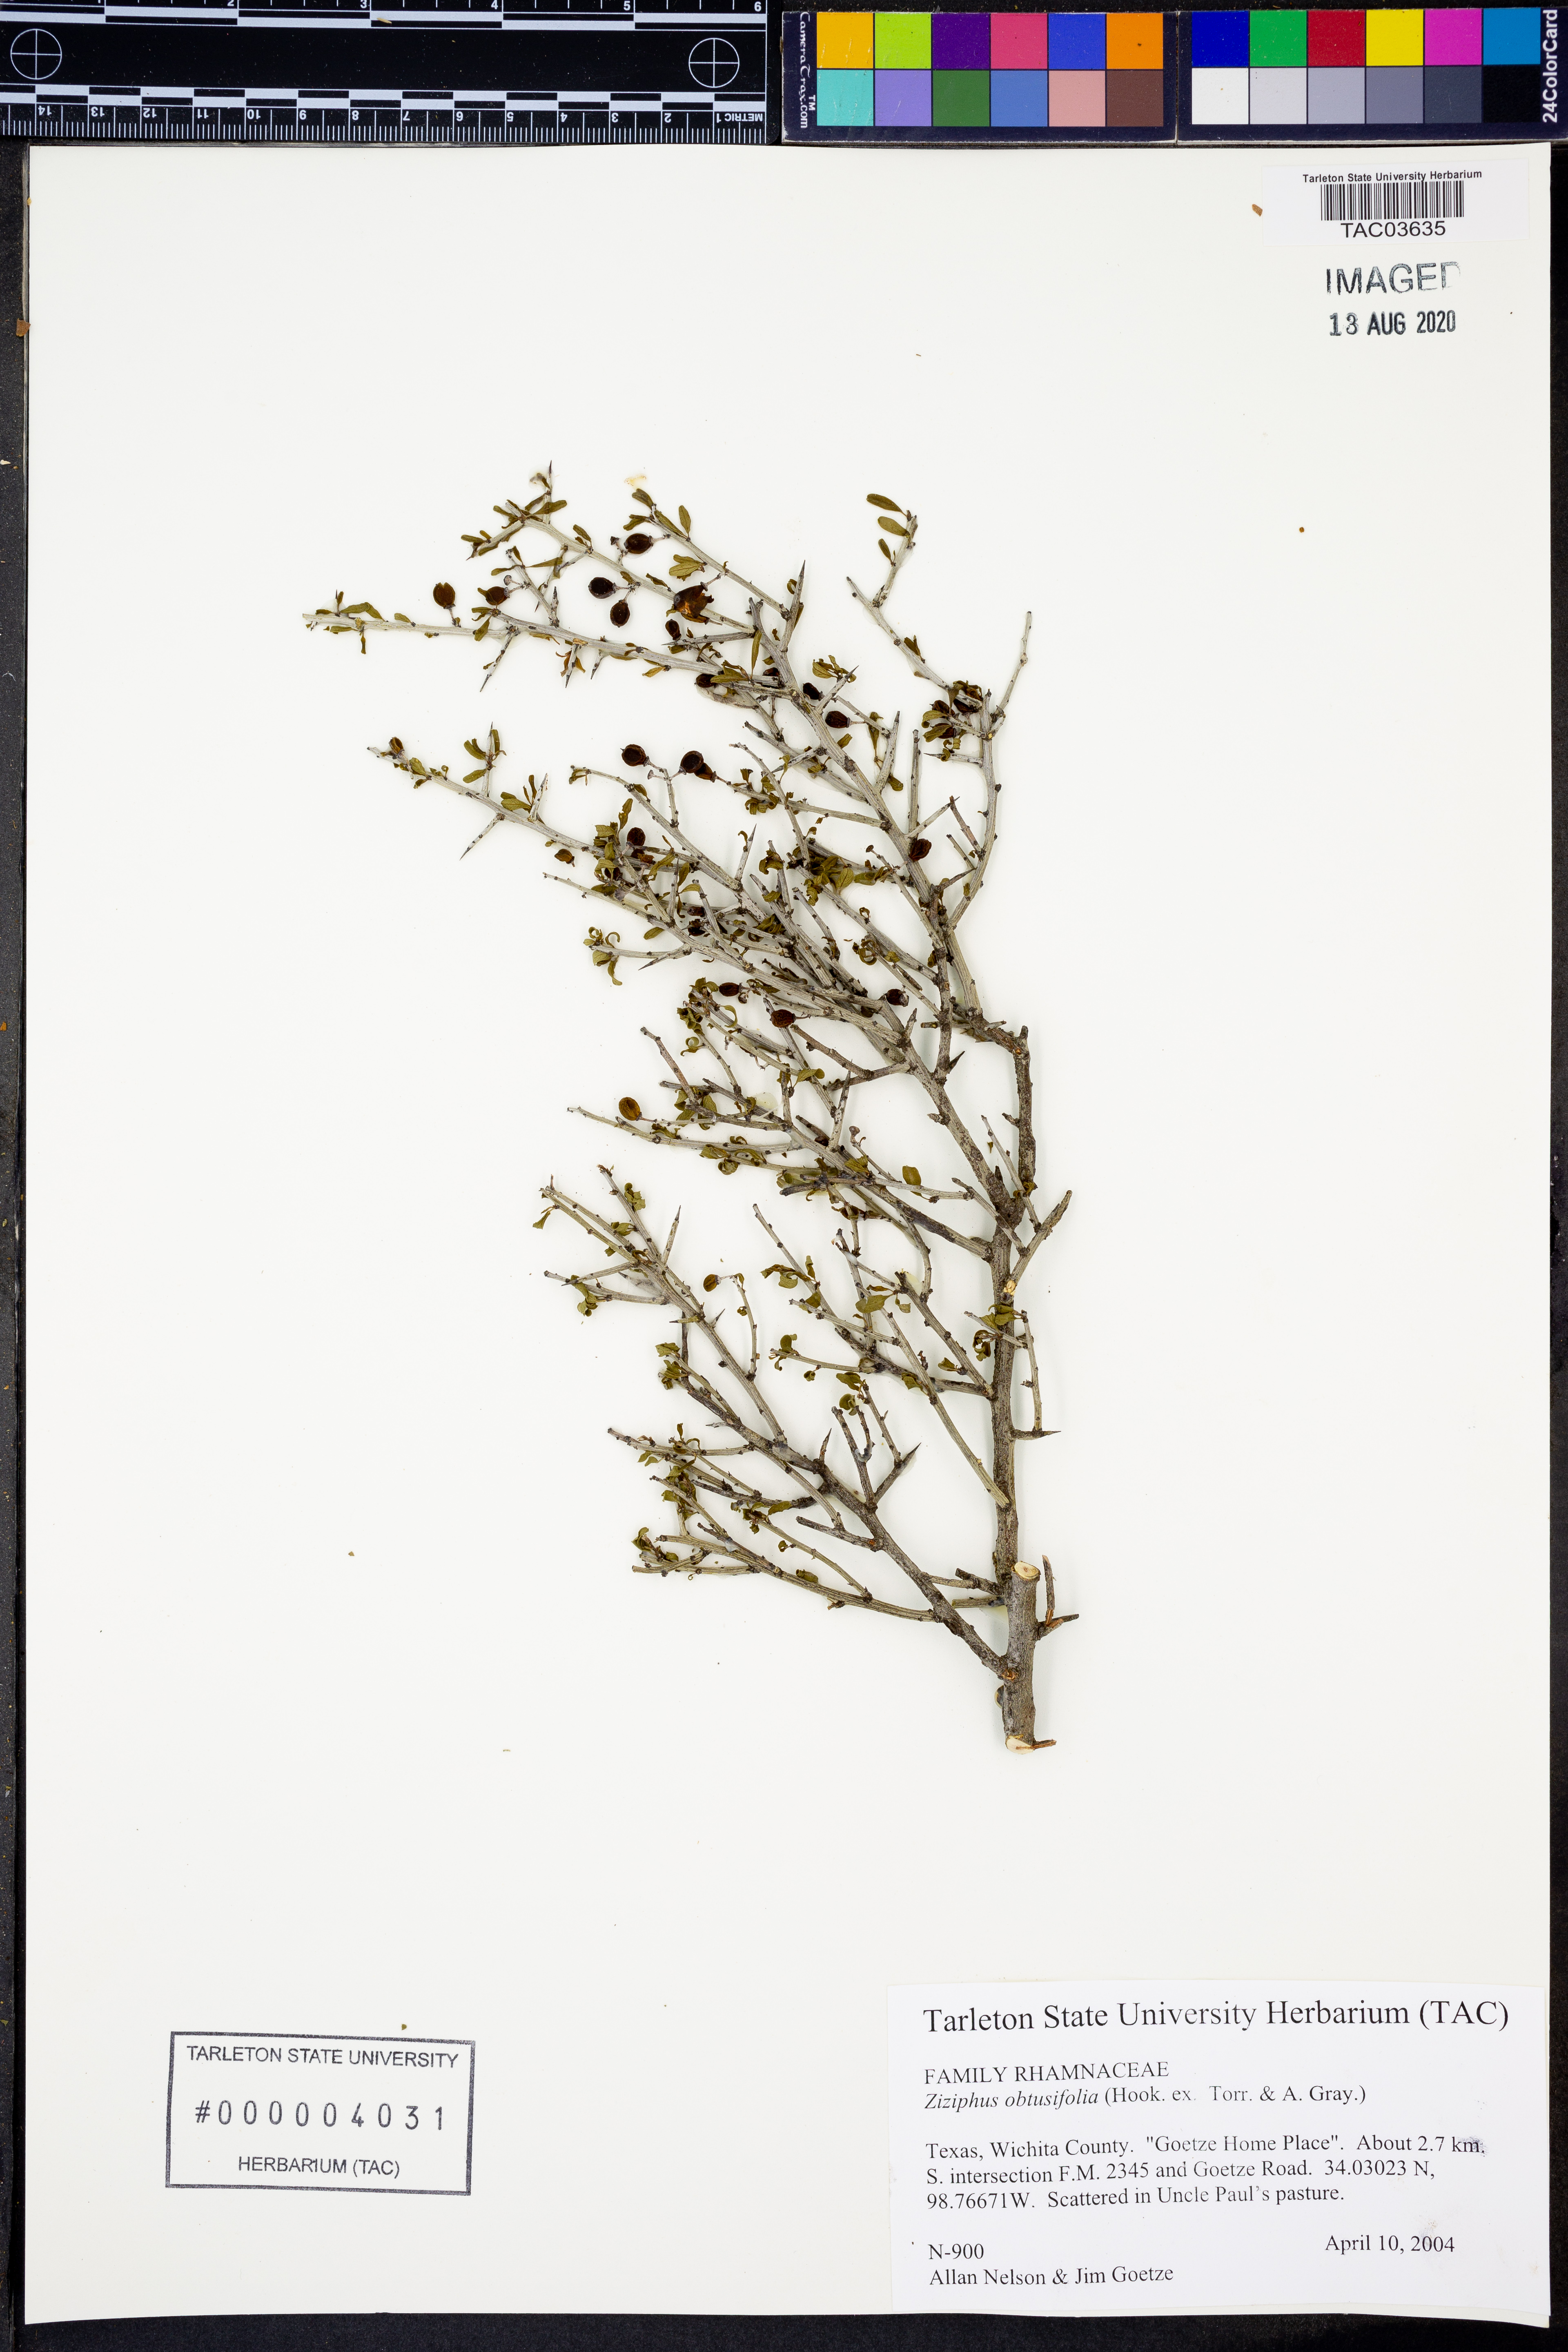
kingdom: Plantae
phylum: Tracheophyta
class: Magnoliopsida
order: Rosales
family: Rhamnaceae
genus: Sarcomphalus
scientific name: Sarcomphalus obtusifolius
